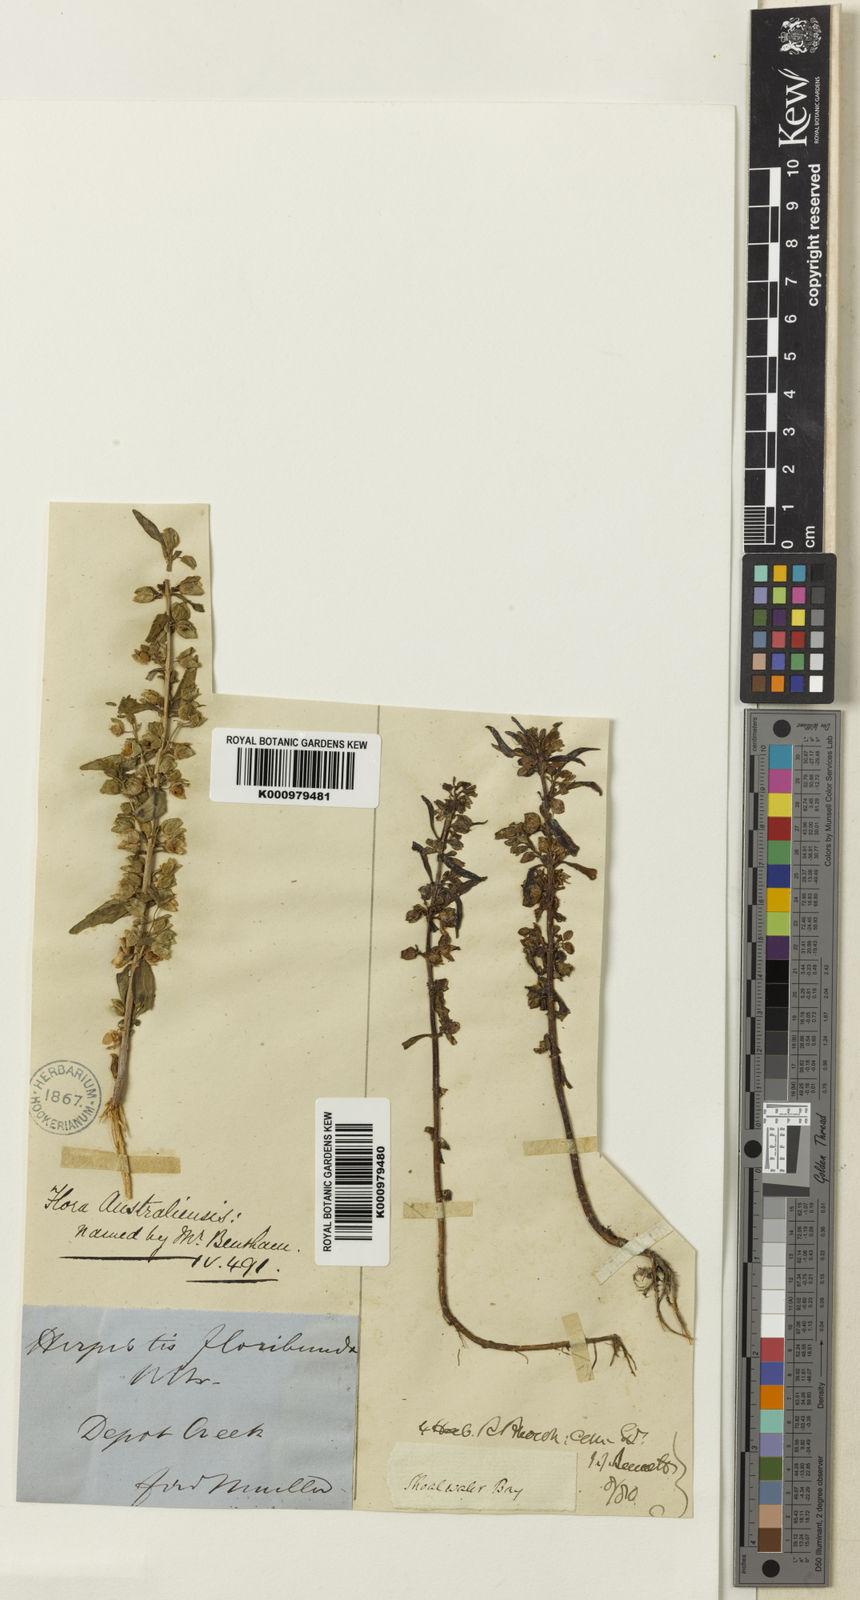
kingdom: Plantae
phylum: Tracheophyta
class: Magnoliopsida
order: Lamiales
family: Plantaginaceae
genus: Bacopa
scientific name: Bacopa floribunda
